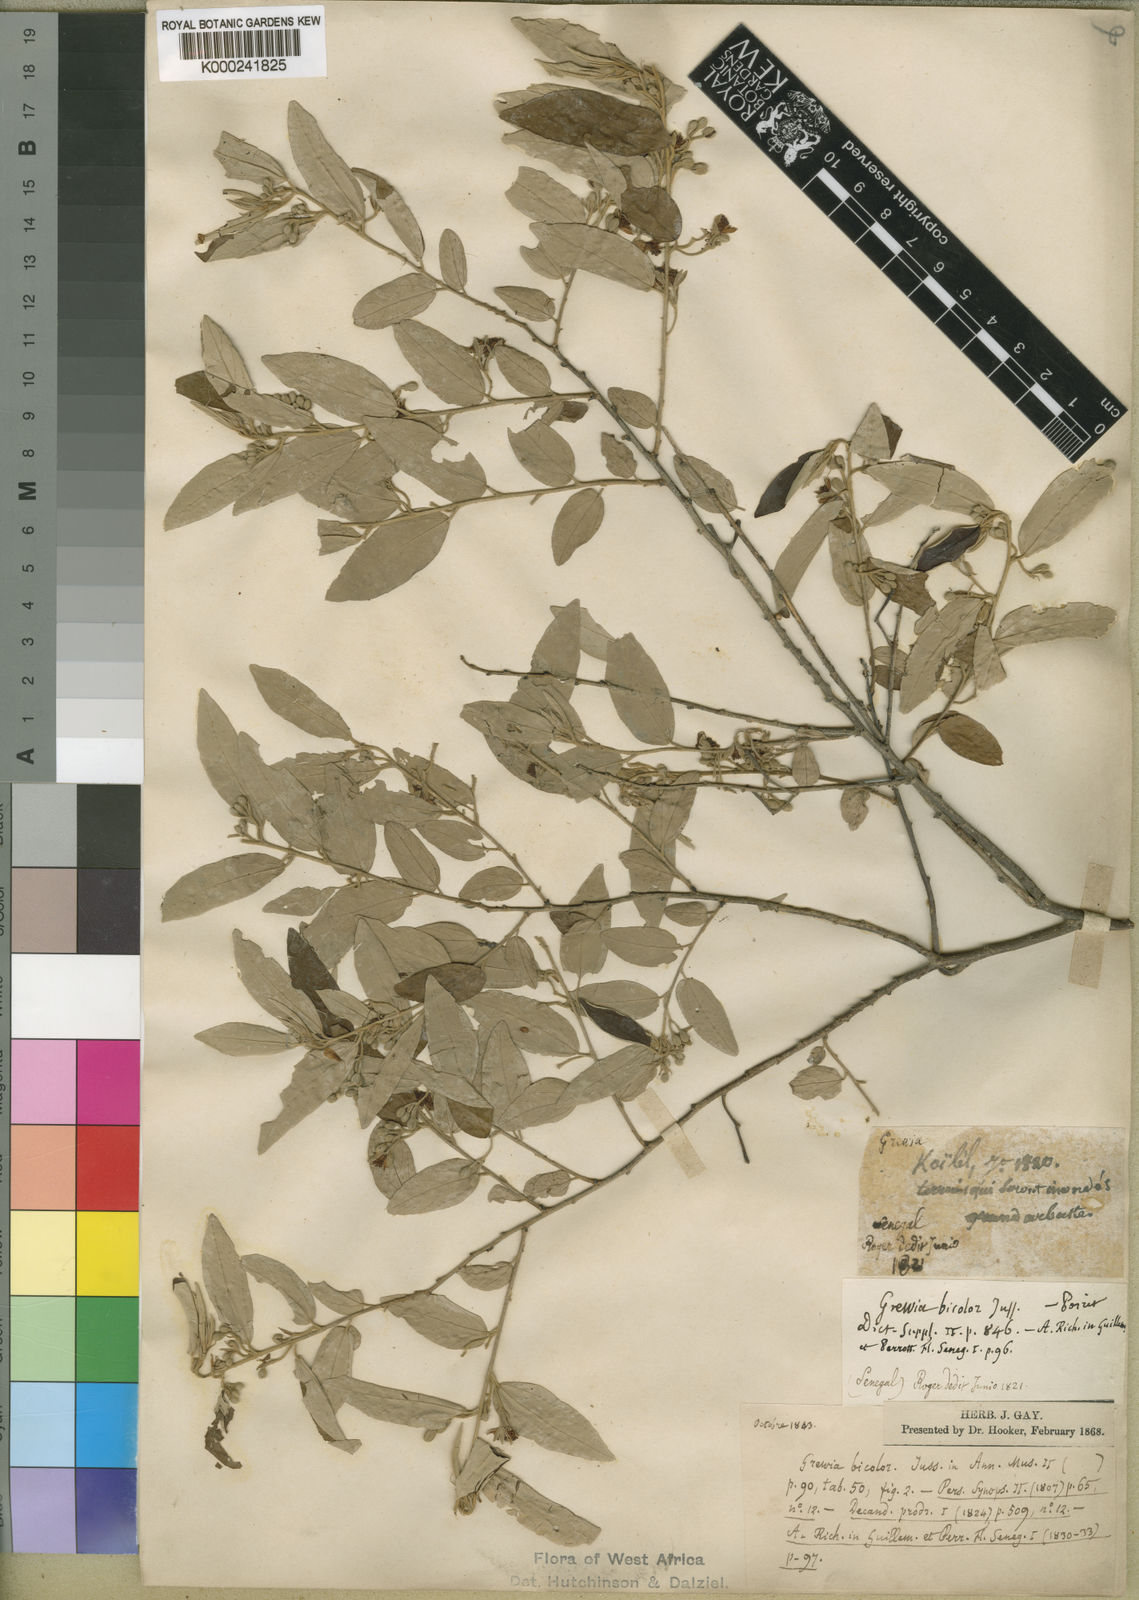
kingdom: Plantae
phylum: Tracheophyta
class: Magnoliopsida
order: Malvales
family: Malvaceae
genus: Grewia
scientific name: Grewia bicolor
